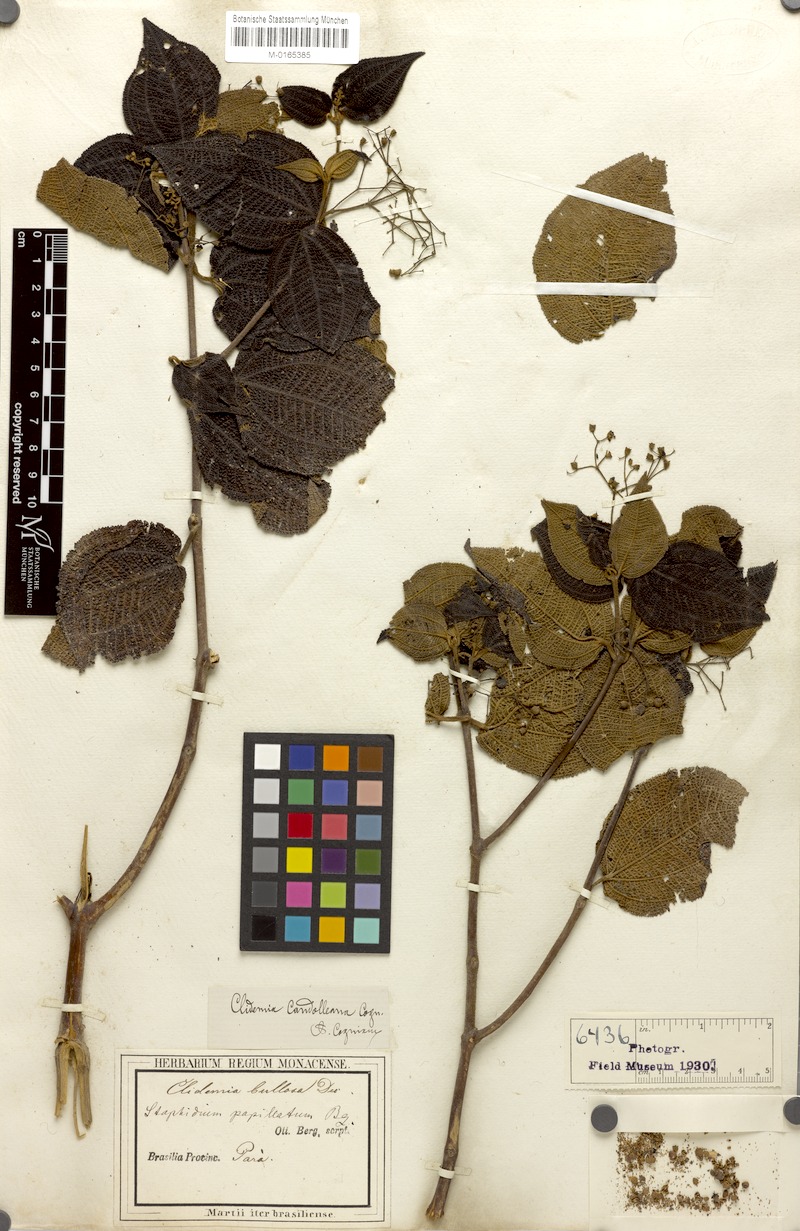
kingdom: Plantae
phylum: Tracheophyta
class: Magnoliopsida
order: Myrtales
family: Melastomataceae
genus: Miconia
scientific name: Miconia bullosa
